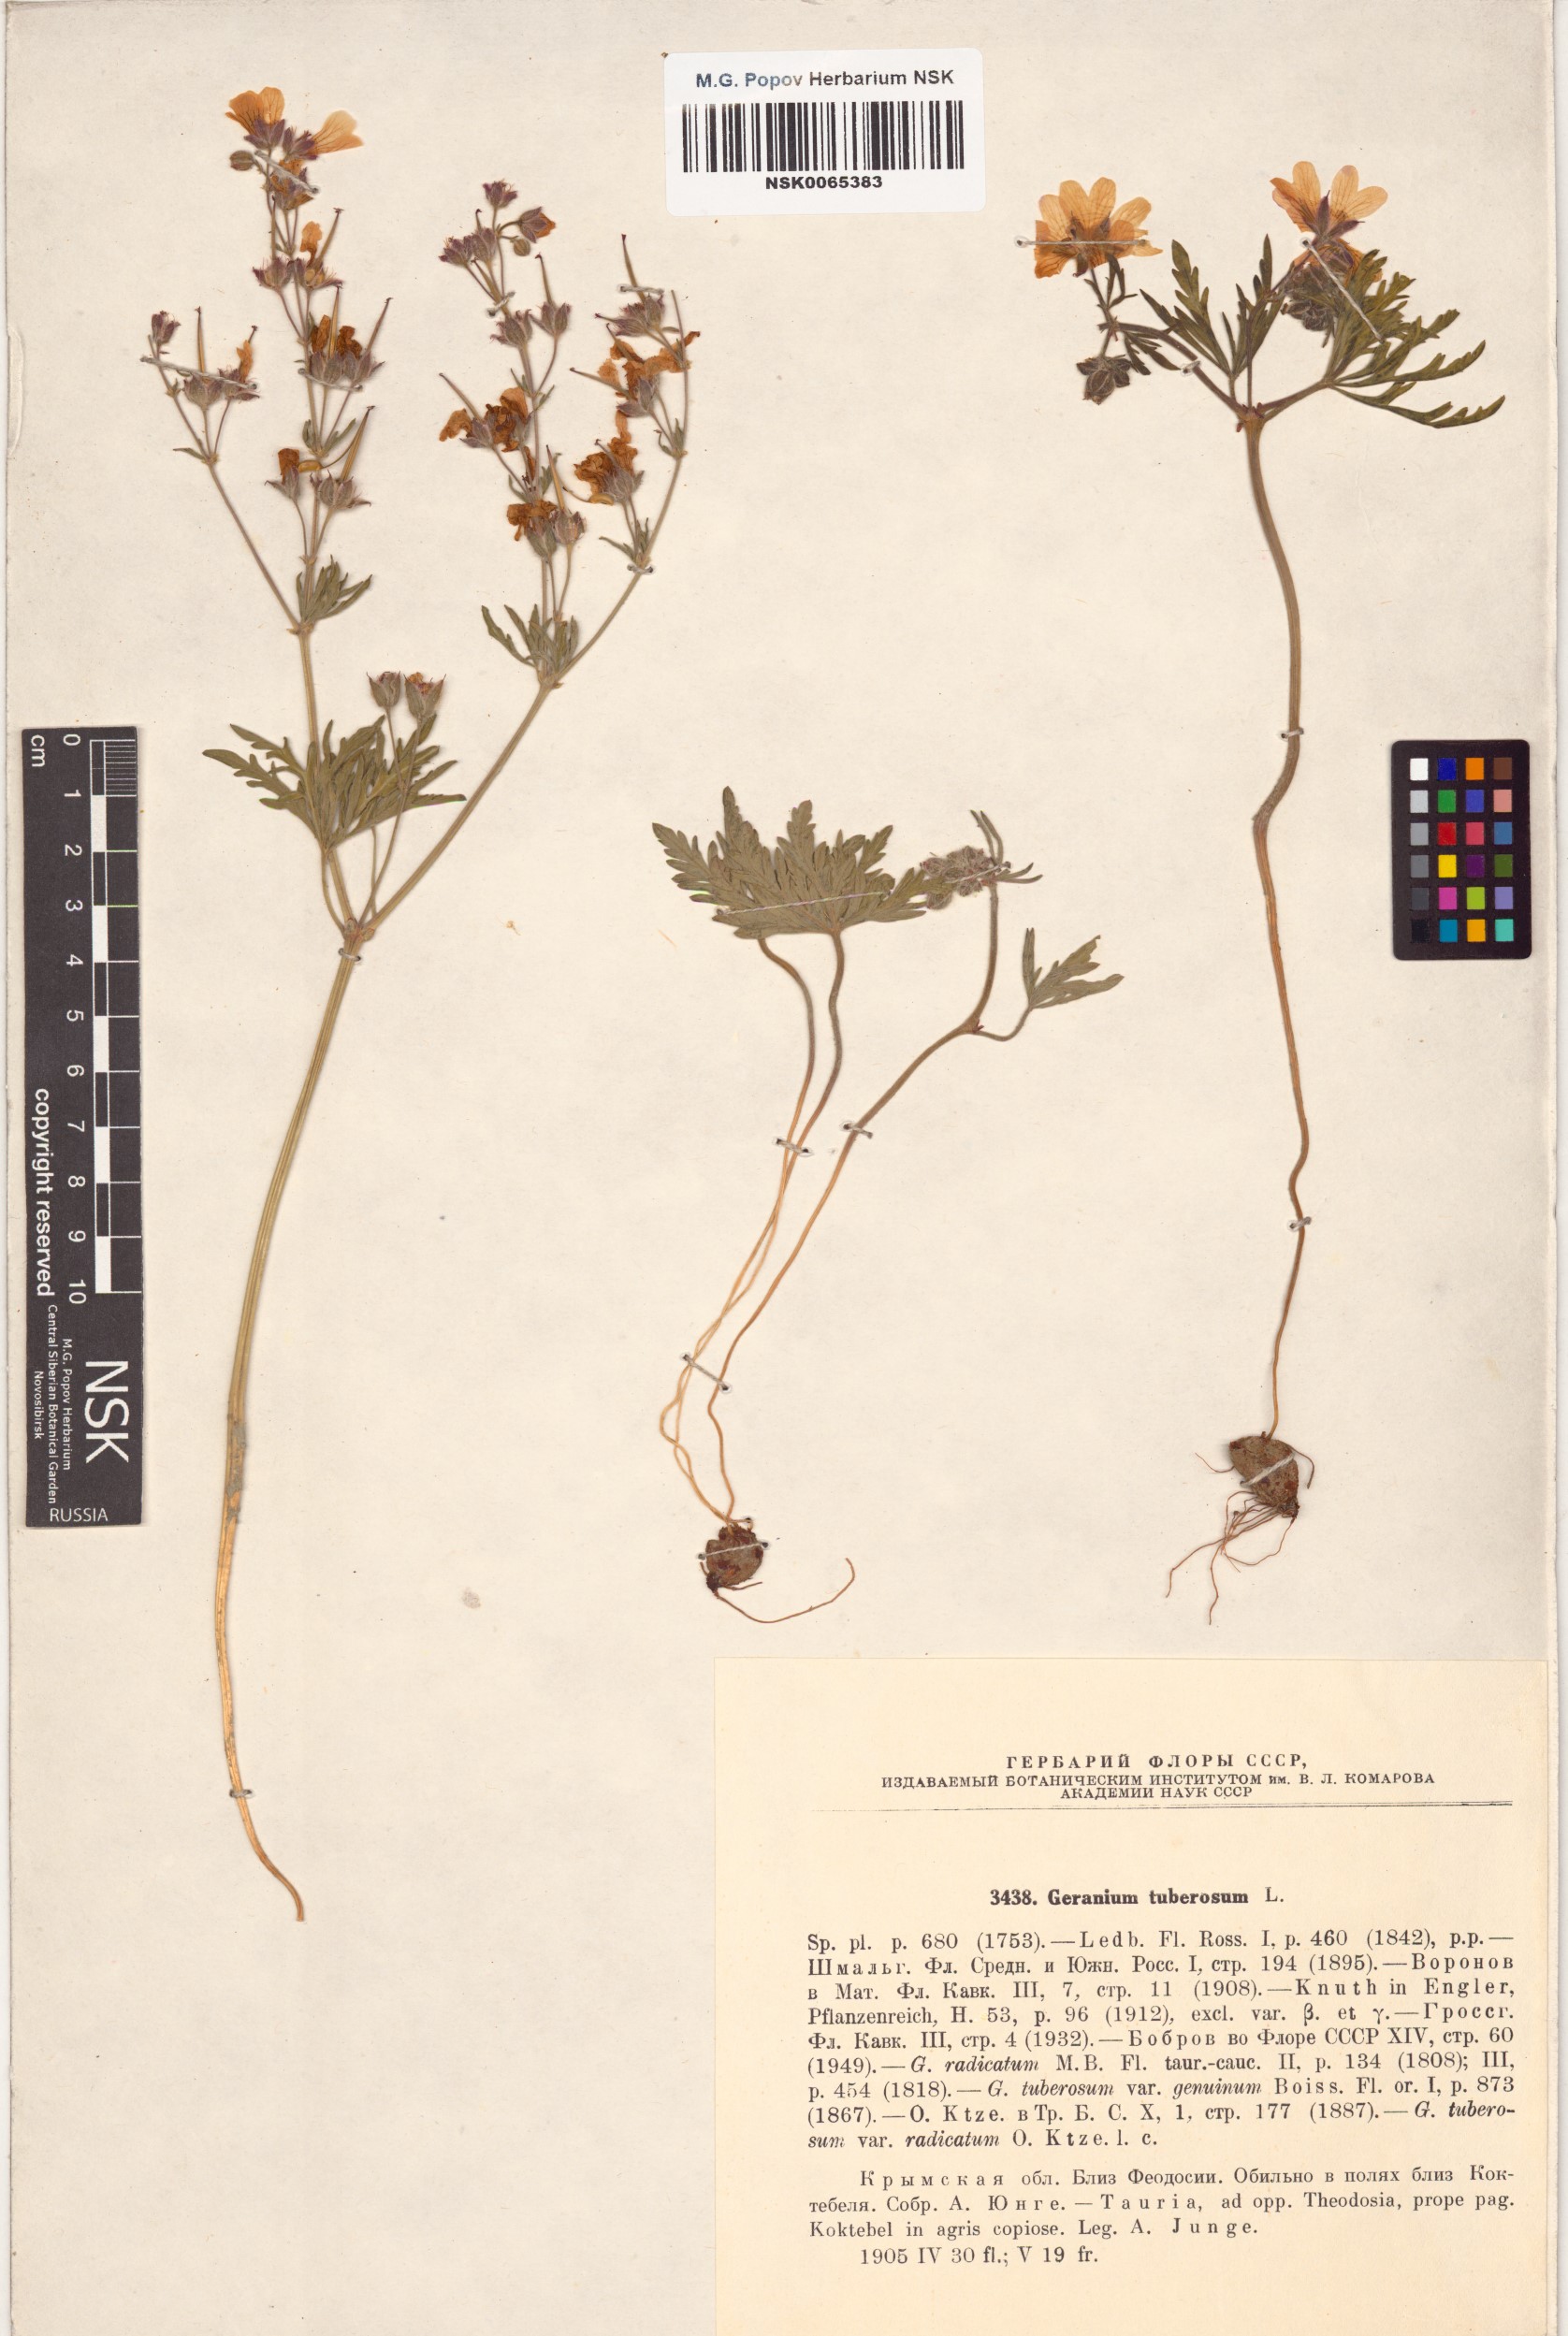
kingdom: Plantae
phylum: Tracheophyta
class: Magnoliopsida
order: Geraniales
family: Geraniaceae
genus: Geranium
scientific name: Geranium tuberosum
